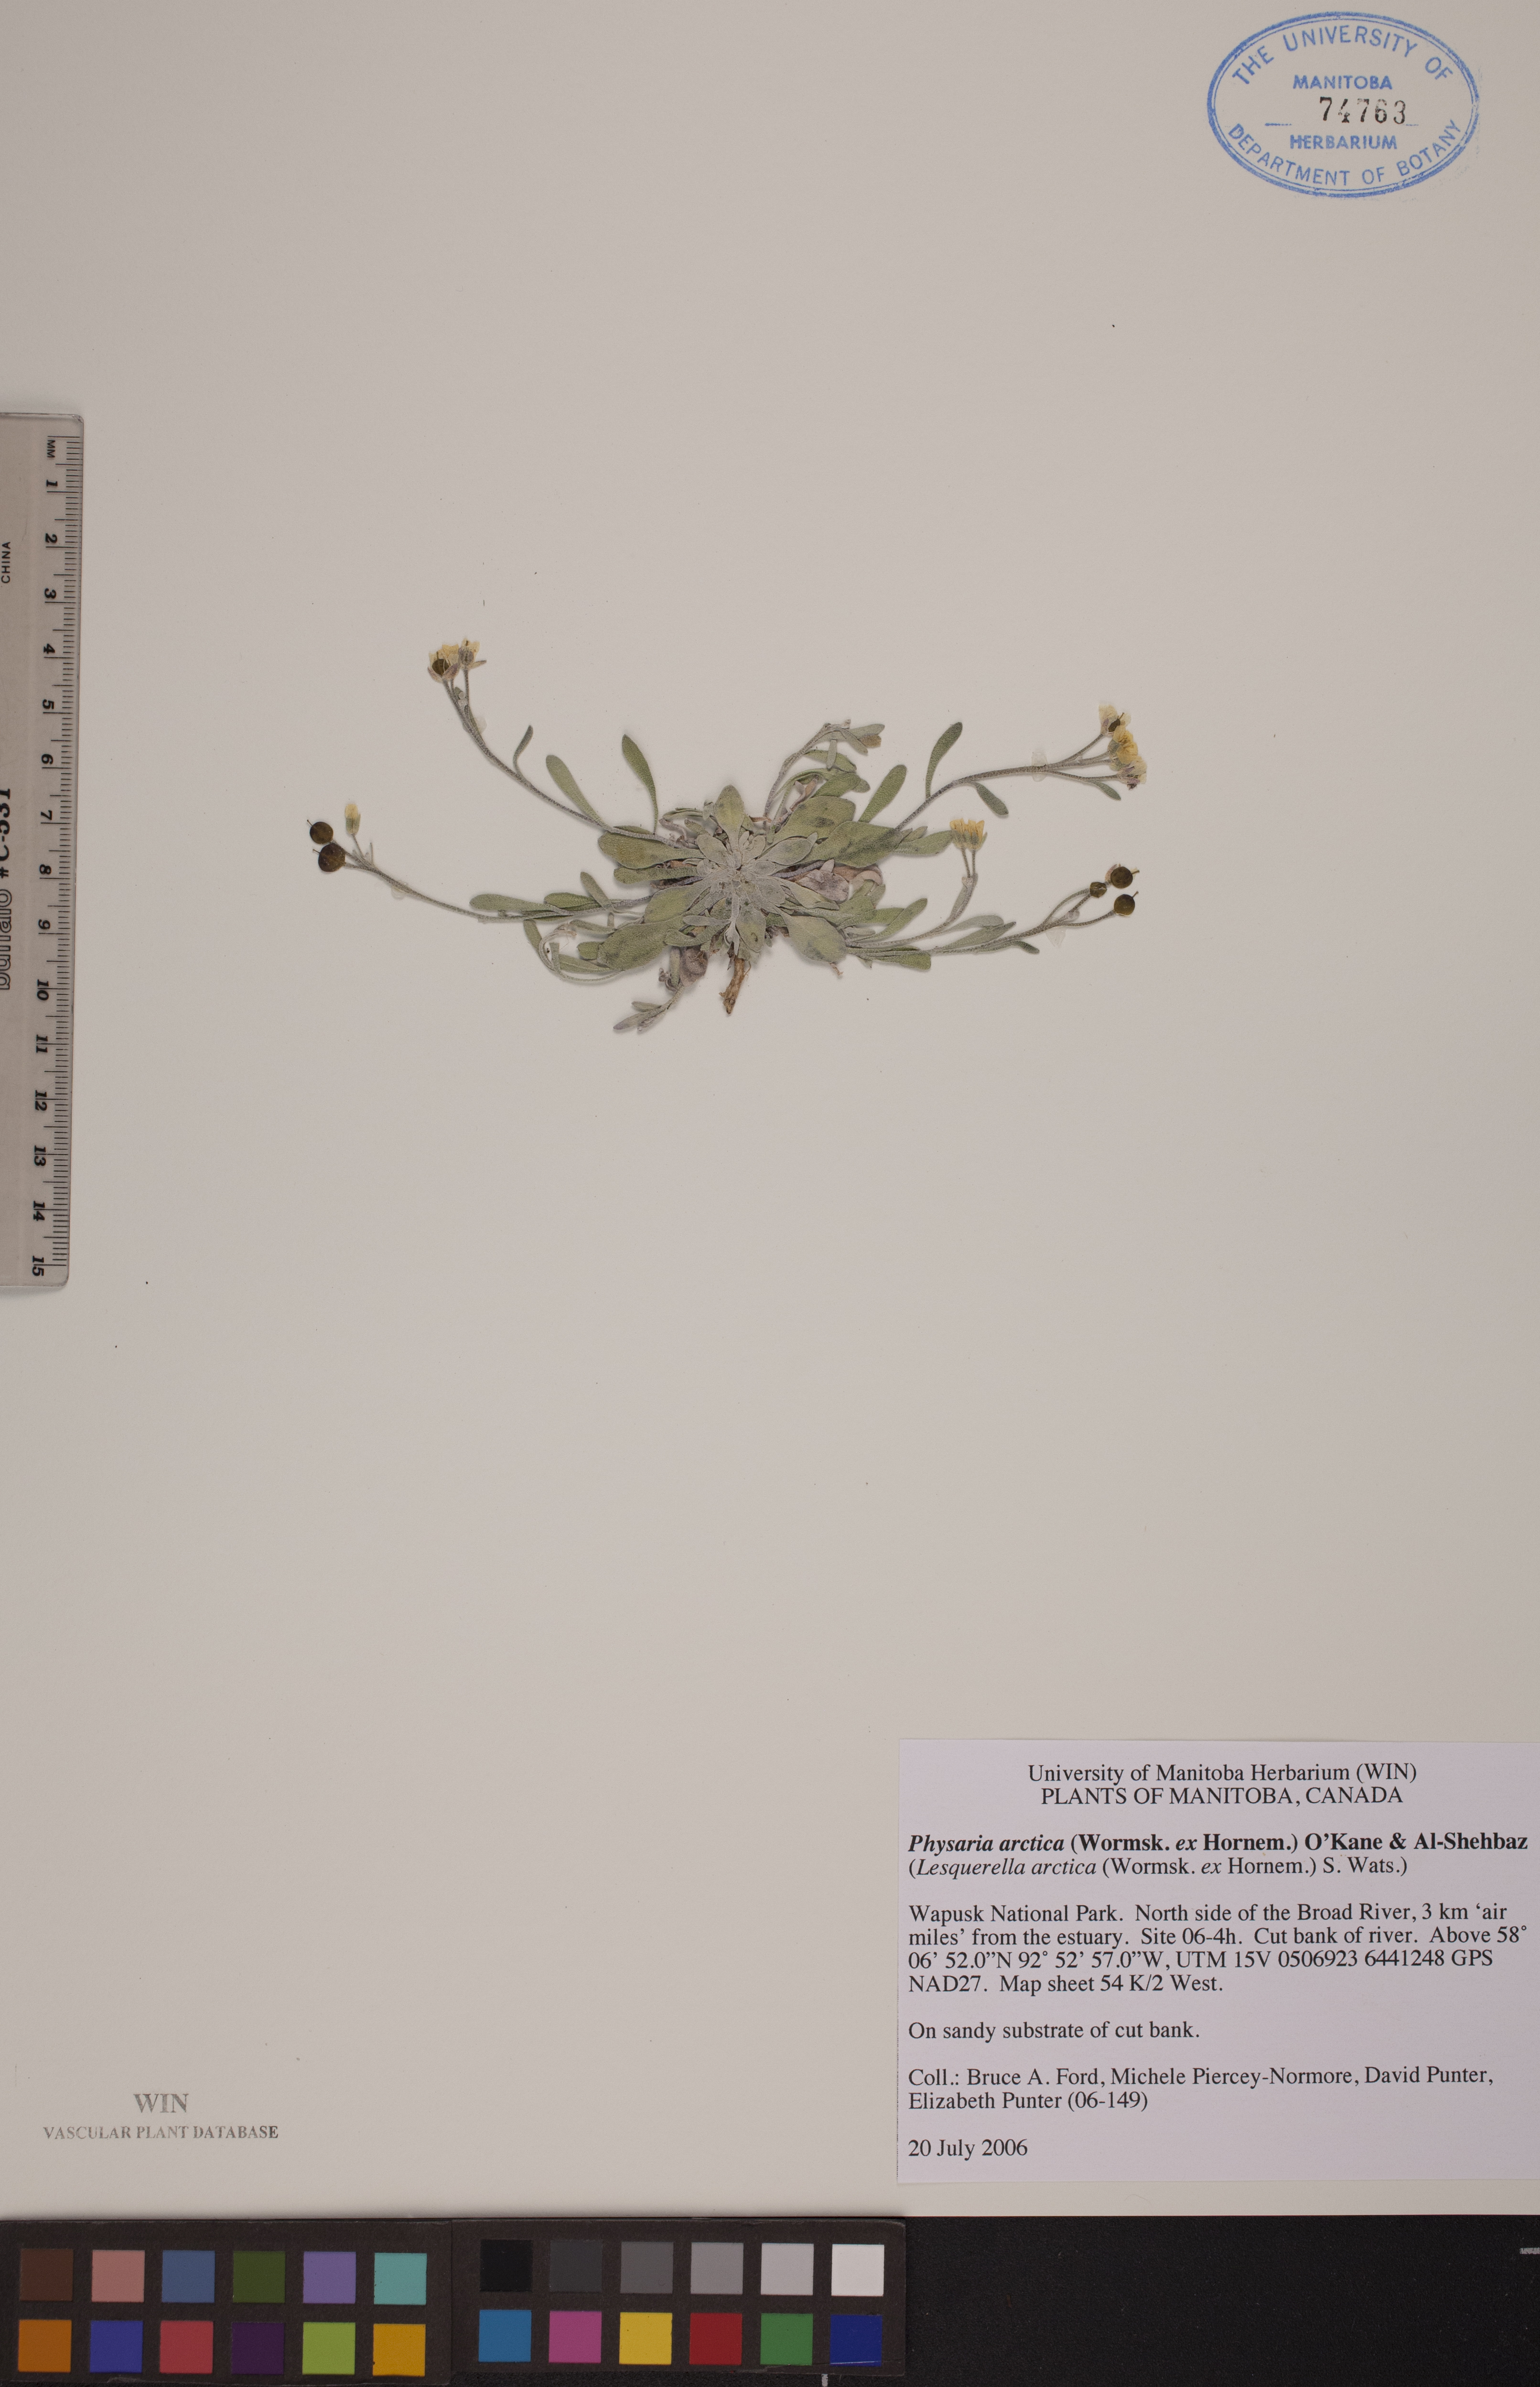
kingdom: Plantae
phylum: Tracheophyta
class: Magnoliopsida
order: Brassicales
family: Brassicaceae
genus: Physaria
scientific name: Physaria arctica
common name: Arctic bladderpod
